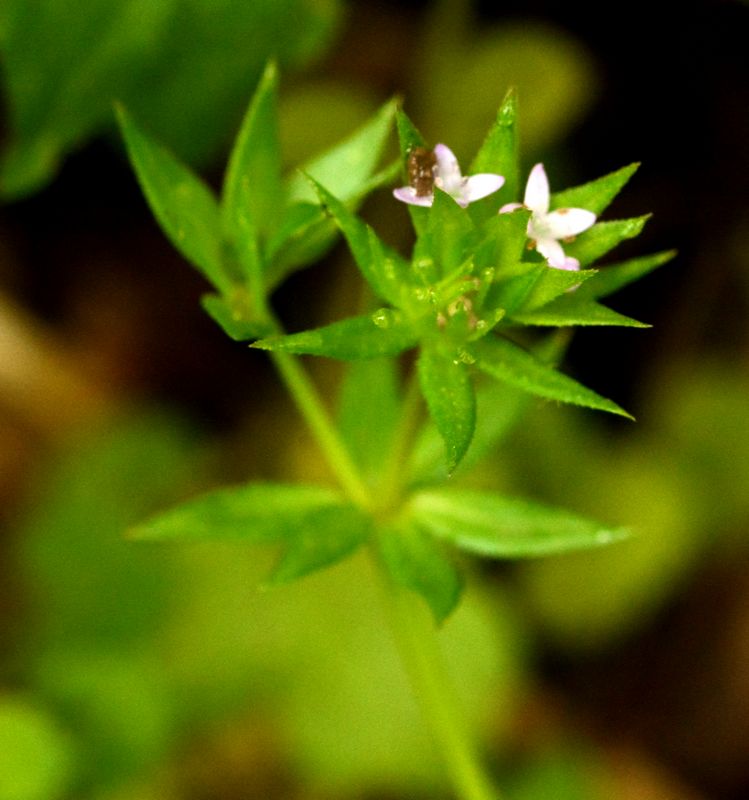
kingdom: Plantae
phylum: Tracheophyta
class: Magnoliopsida
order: Gentianales
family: Rubiaceae
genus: Asperula
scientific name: Asperula arvensis
